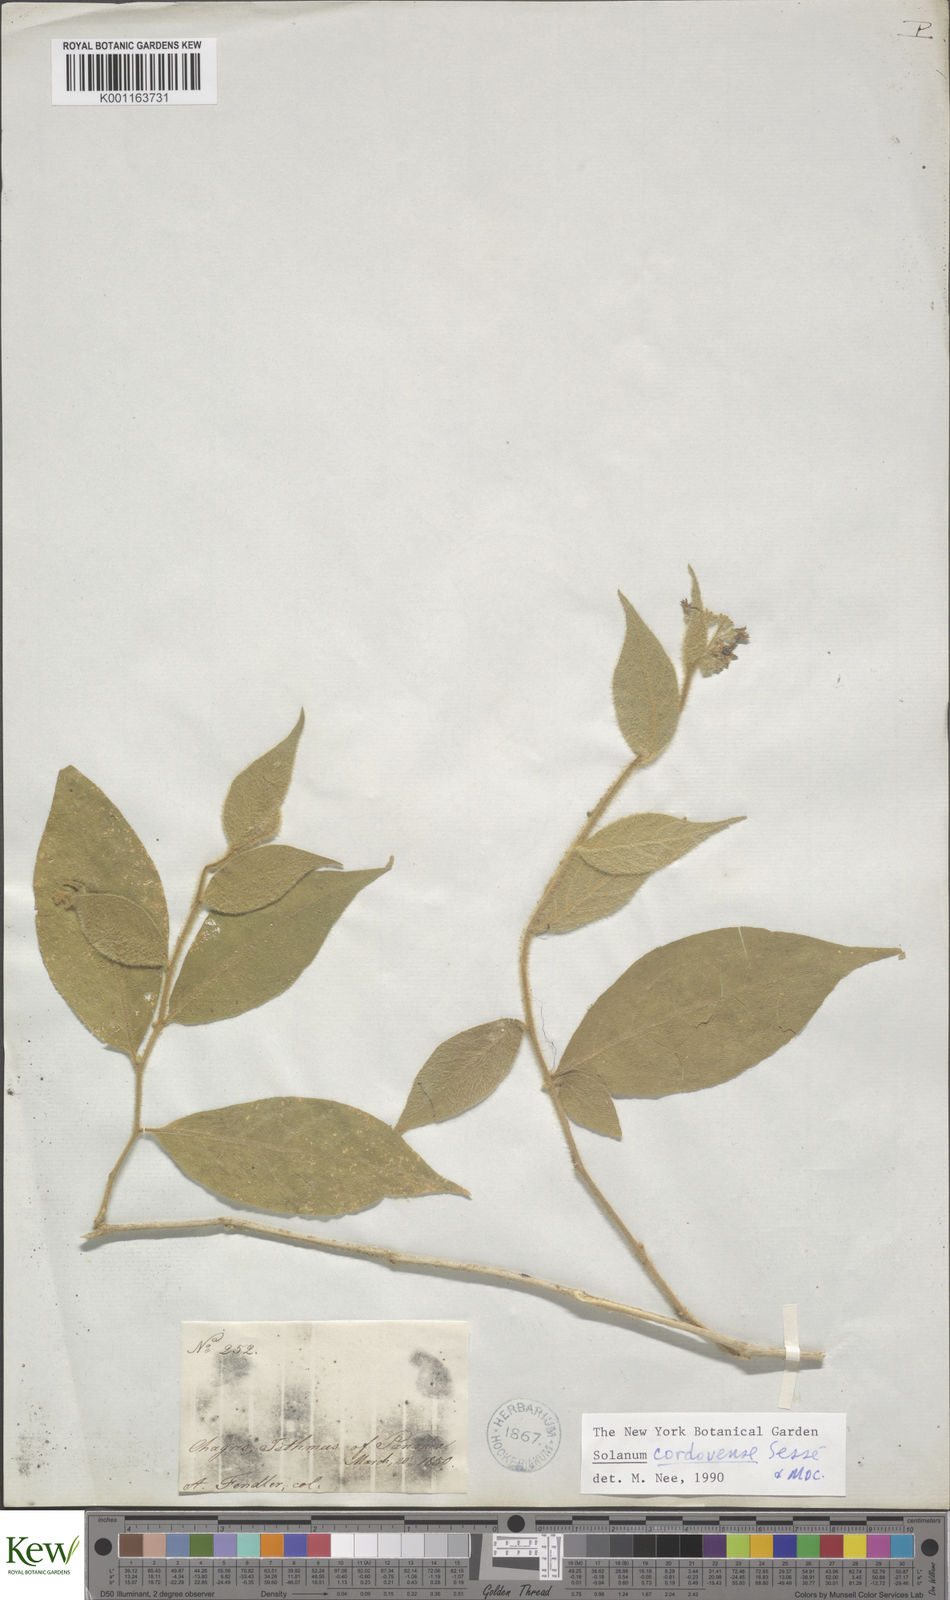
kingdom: Plantae
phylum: Tracheophyta
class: Magnoliopsida
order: Solanales
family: Solanaceae
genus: Solanum
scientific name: Solanum
